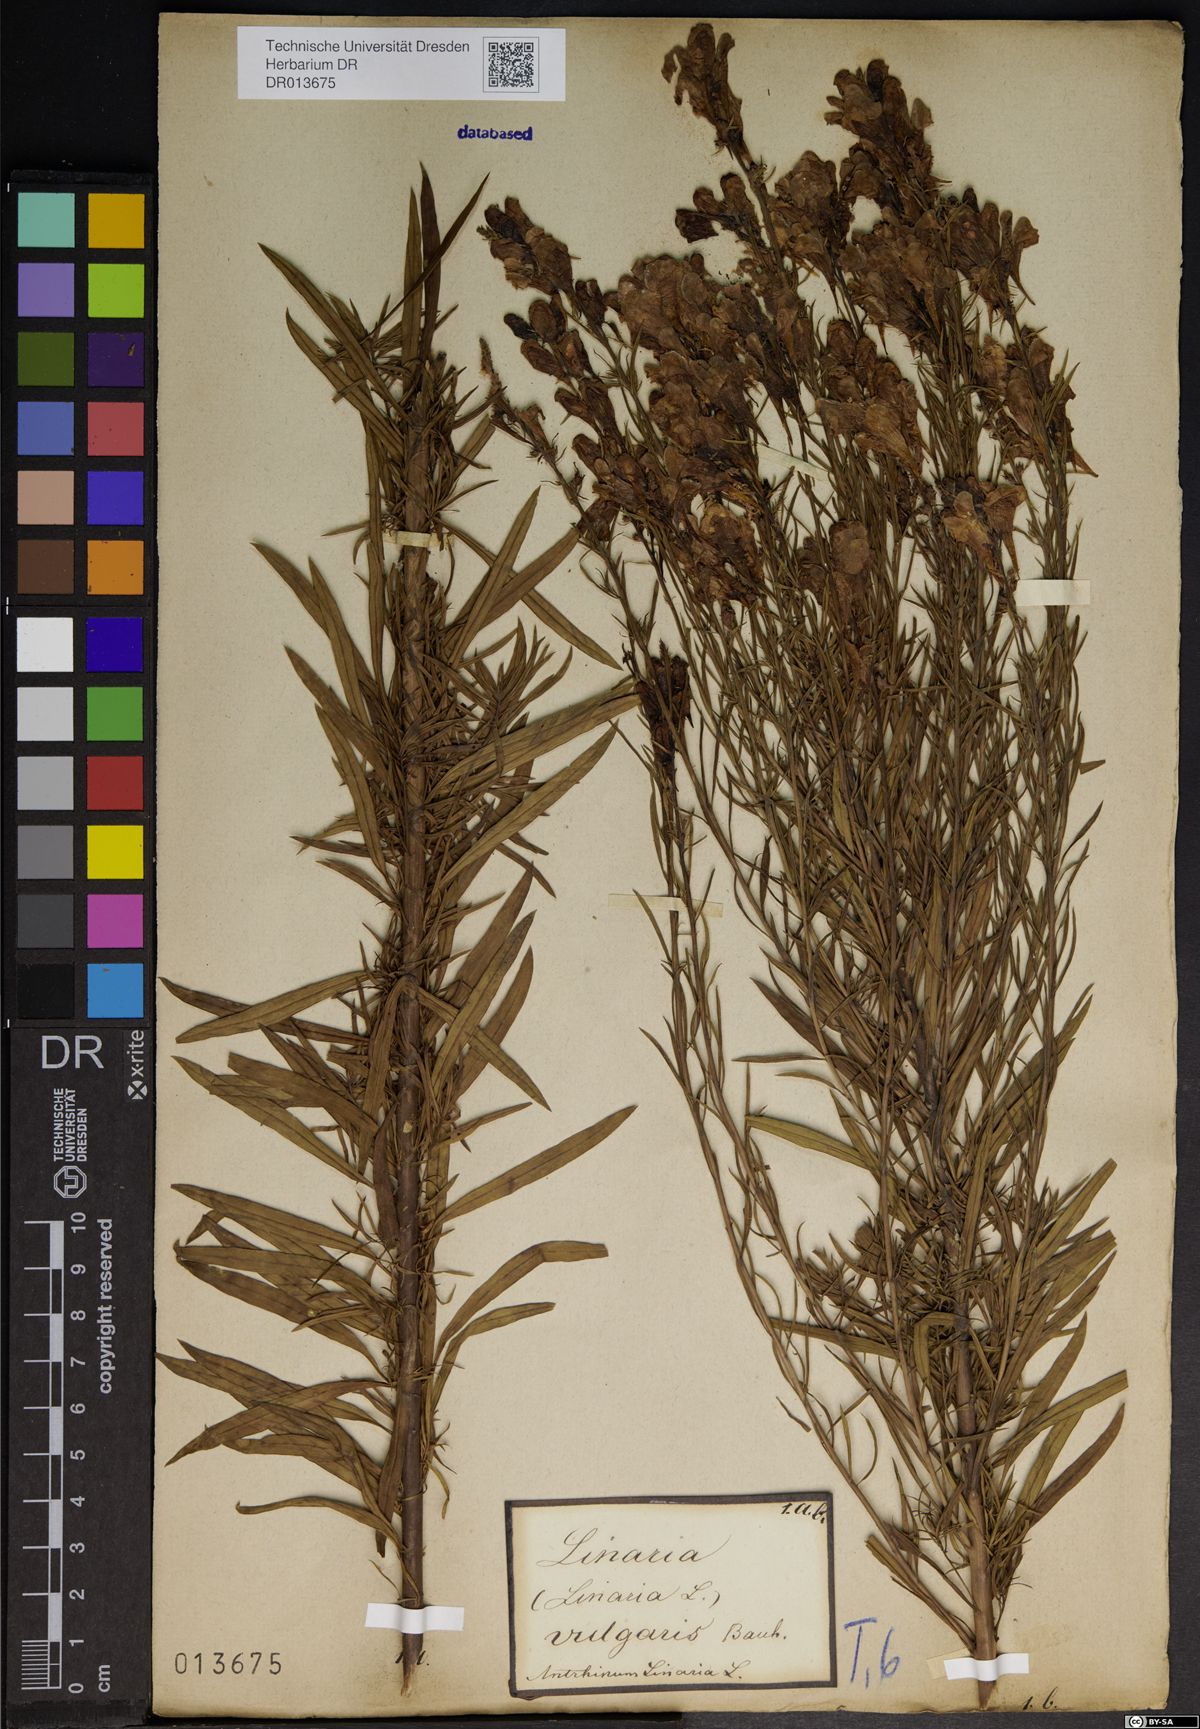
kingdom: Plantae
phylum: Tracheophyta
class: Magnoliopsida
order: Lamiales
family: Plantaginaceae
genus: Linaria
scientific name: Linaria vulgaris
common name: Butter and eggs
